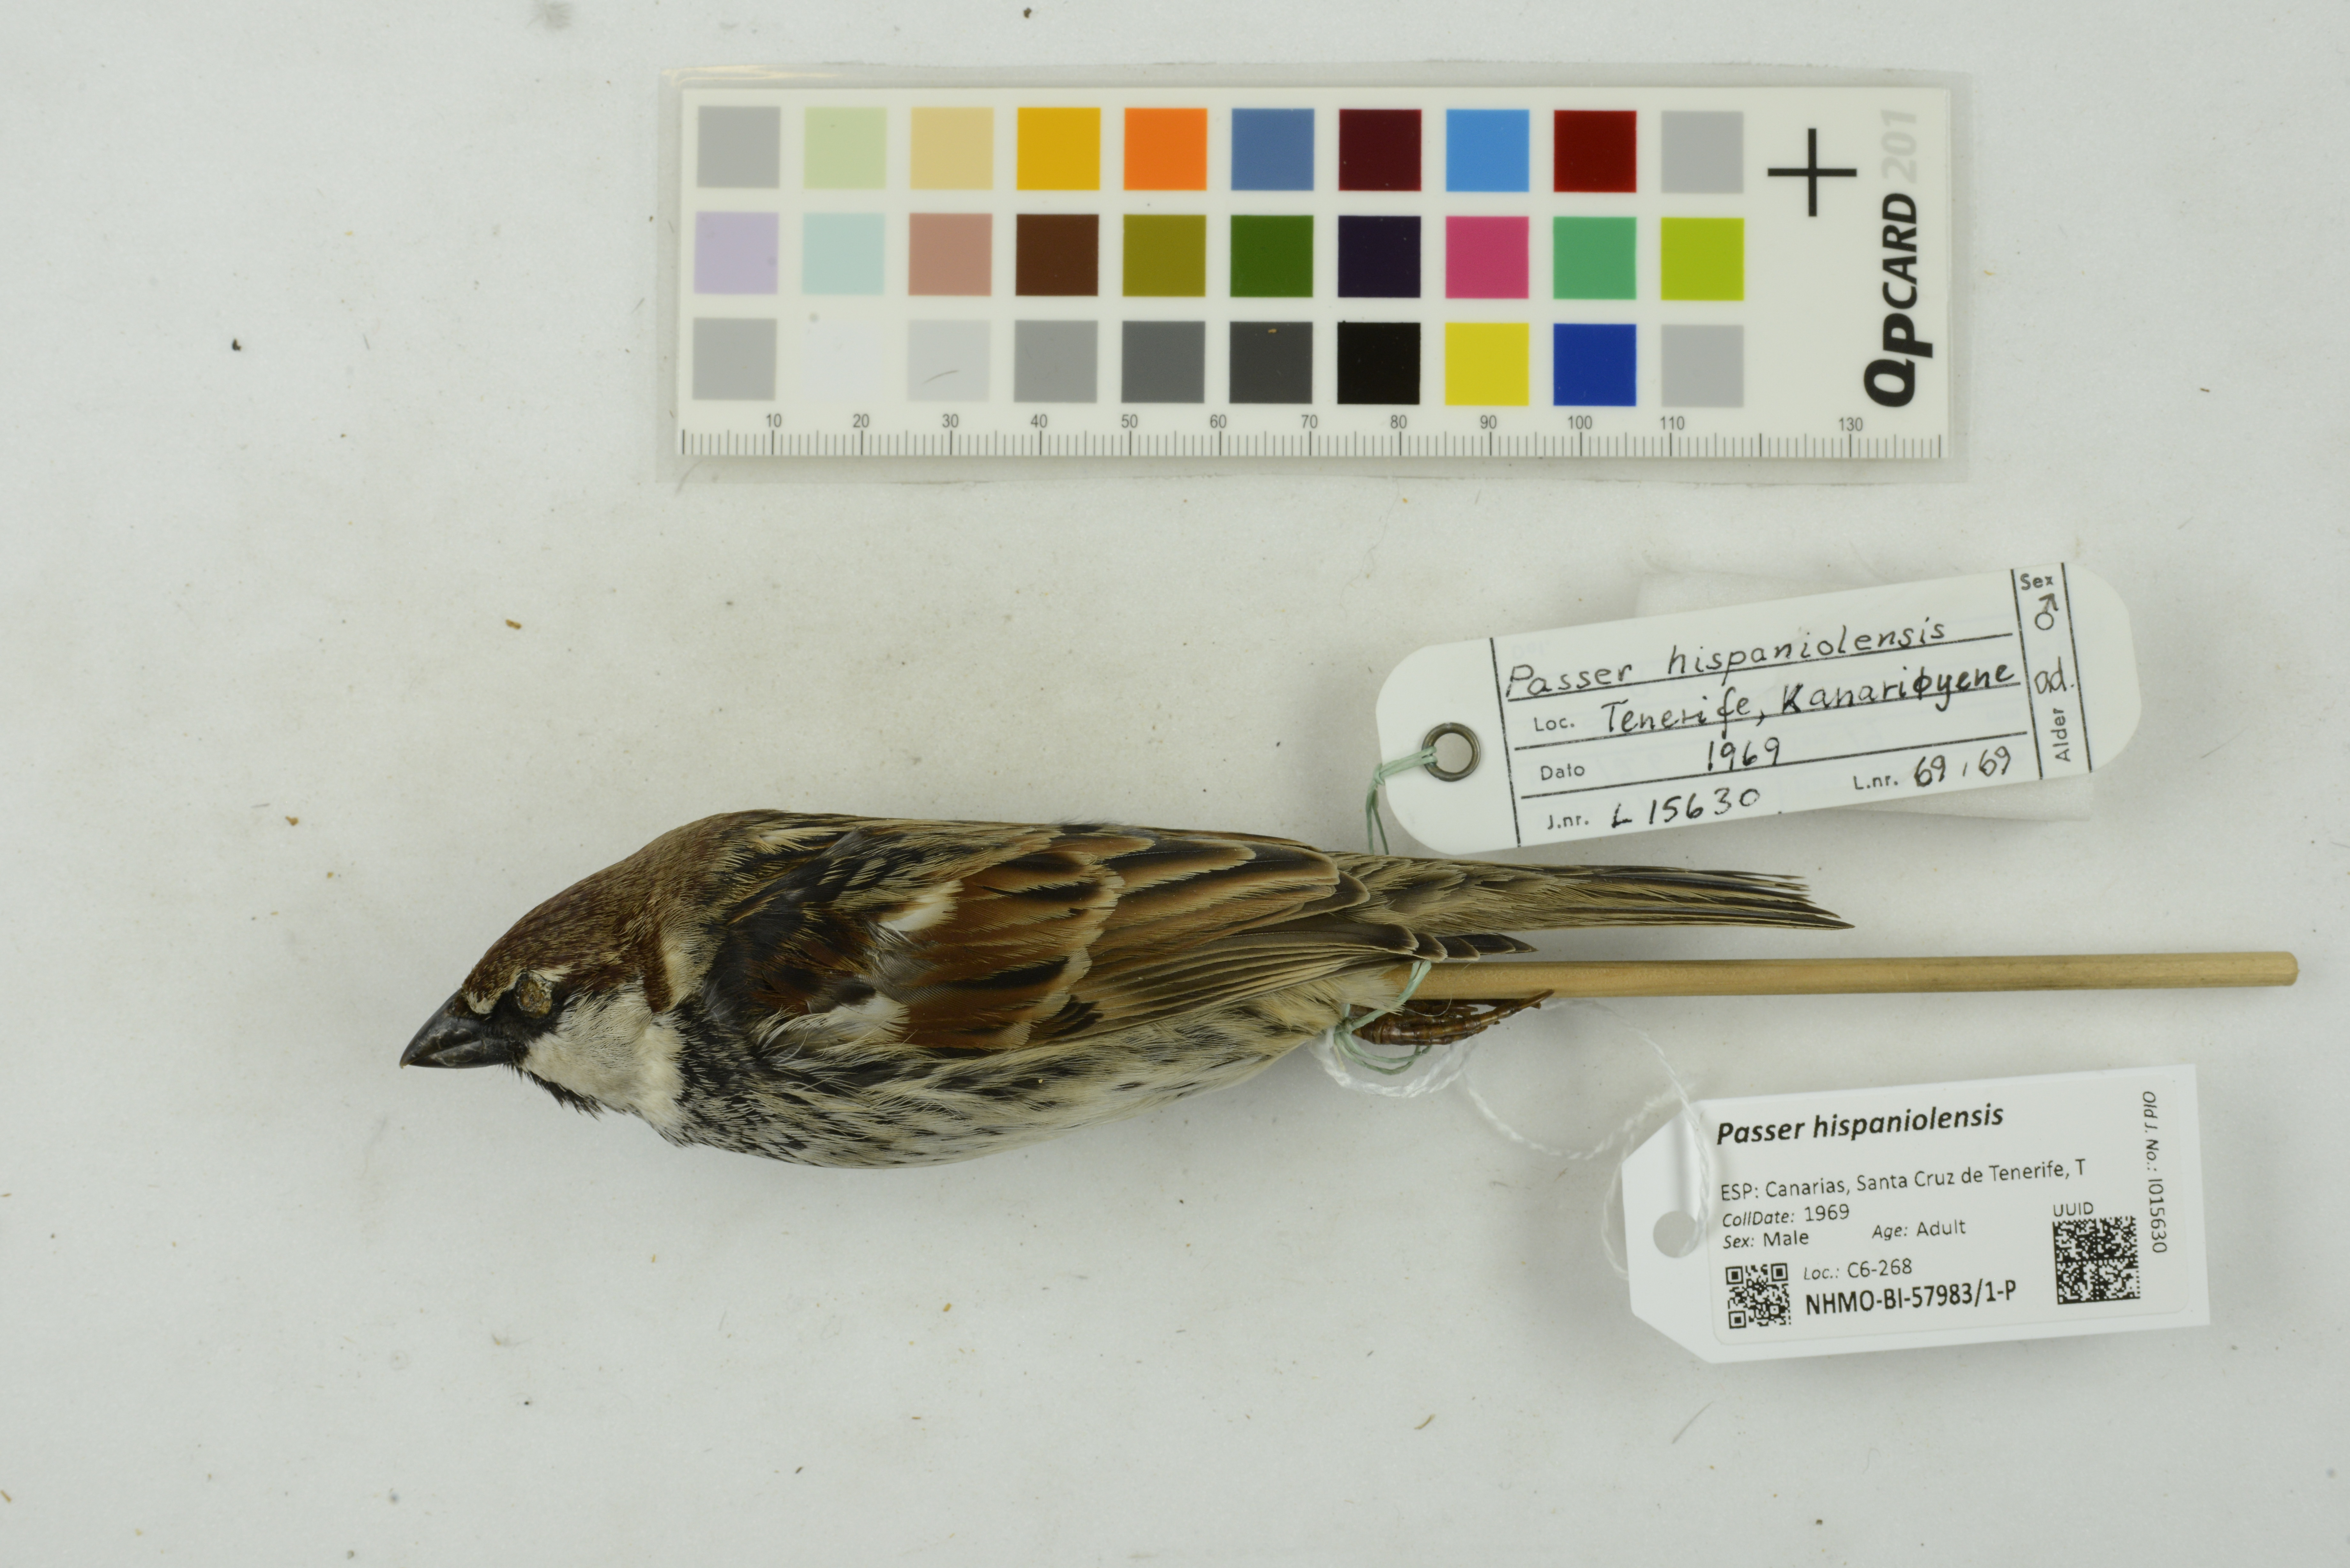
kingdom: Animalia
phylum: Chordata
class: Aves
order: Passeriformes
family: Passeridae
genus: Passer
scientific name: Passer hispaniolensis
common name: Spanish sparrow
